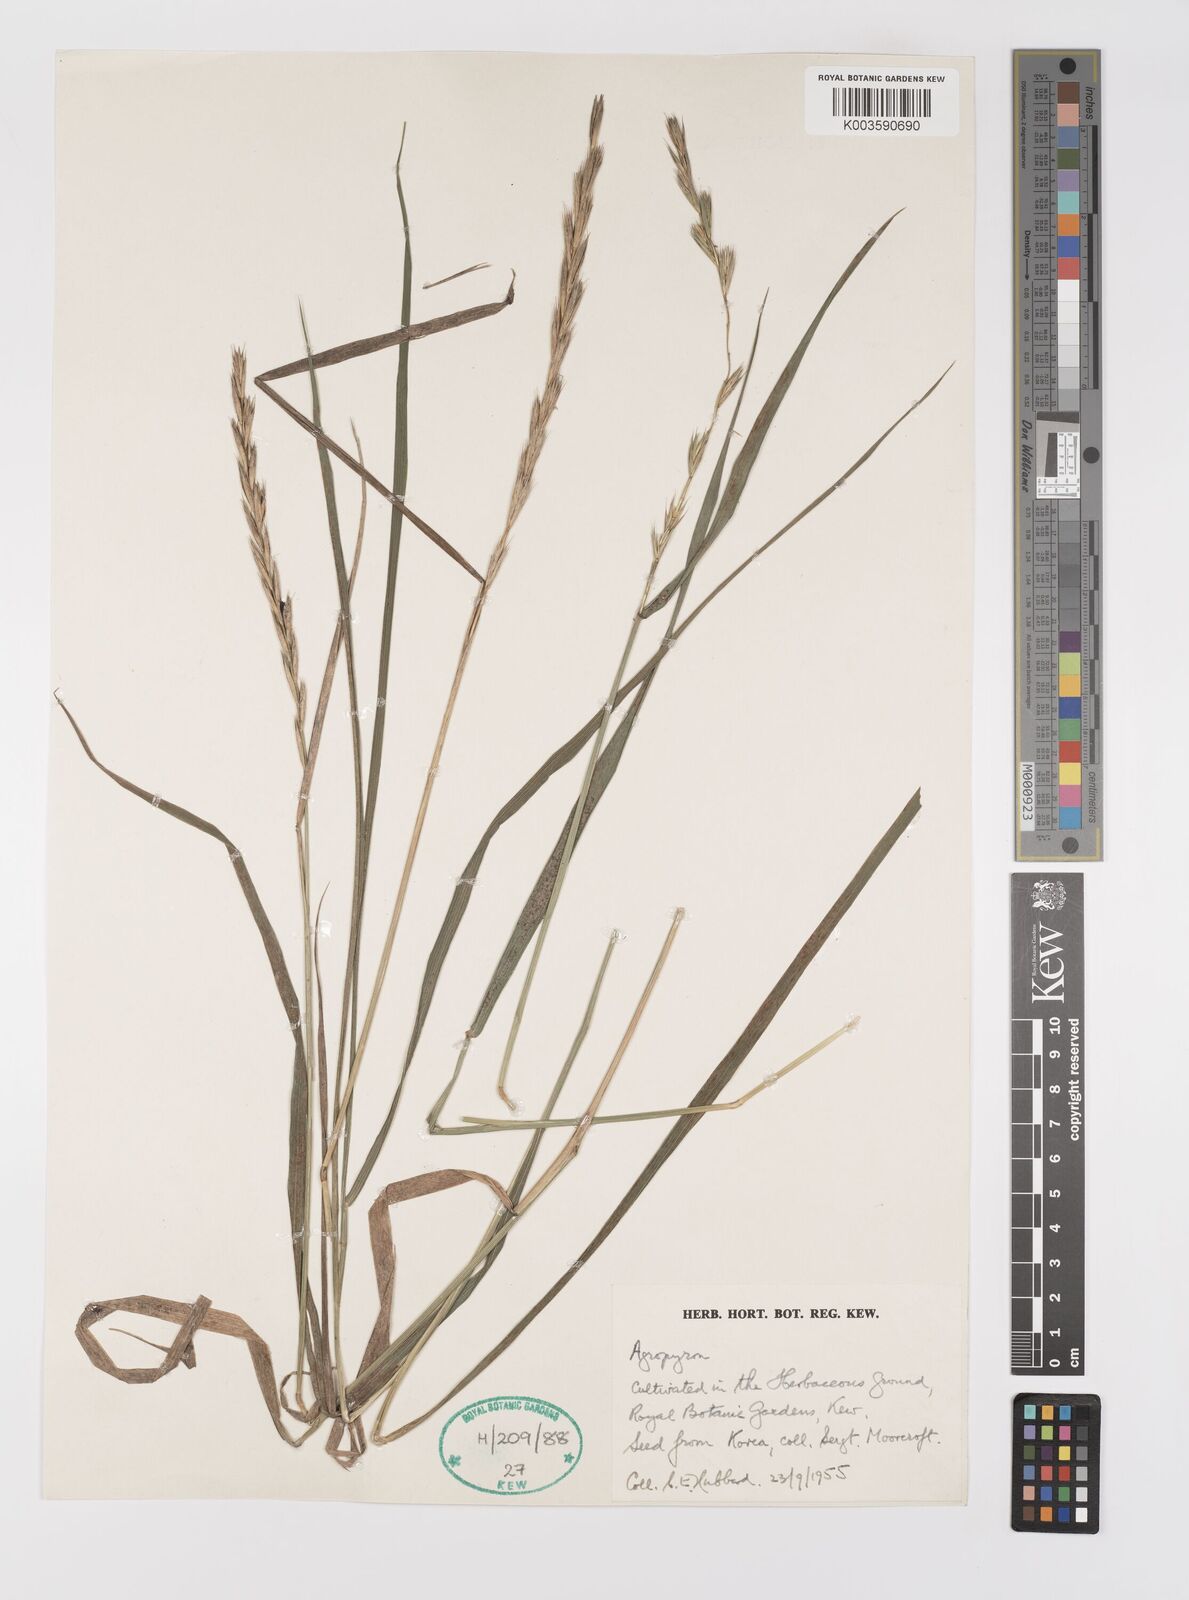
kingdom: Plantae
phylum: Tracheophyta
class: Liliopsida
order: Poales
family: Poaceae
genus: Elymus
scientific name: Elymus repens
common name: Quackgrass
